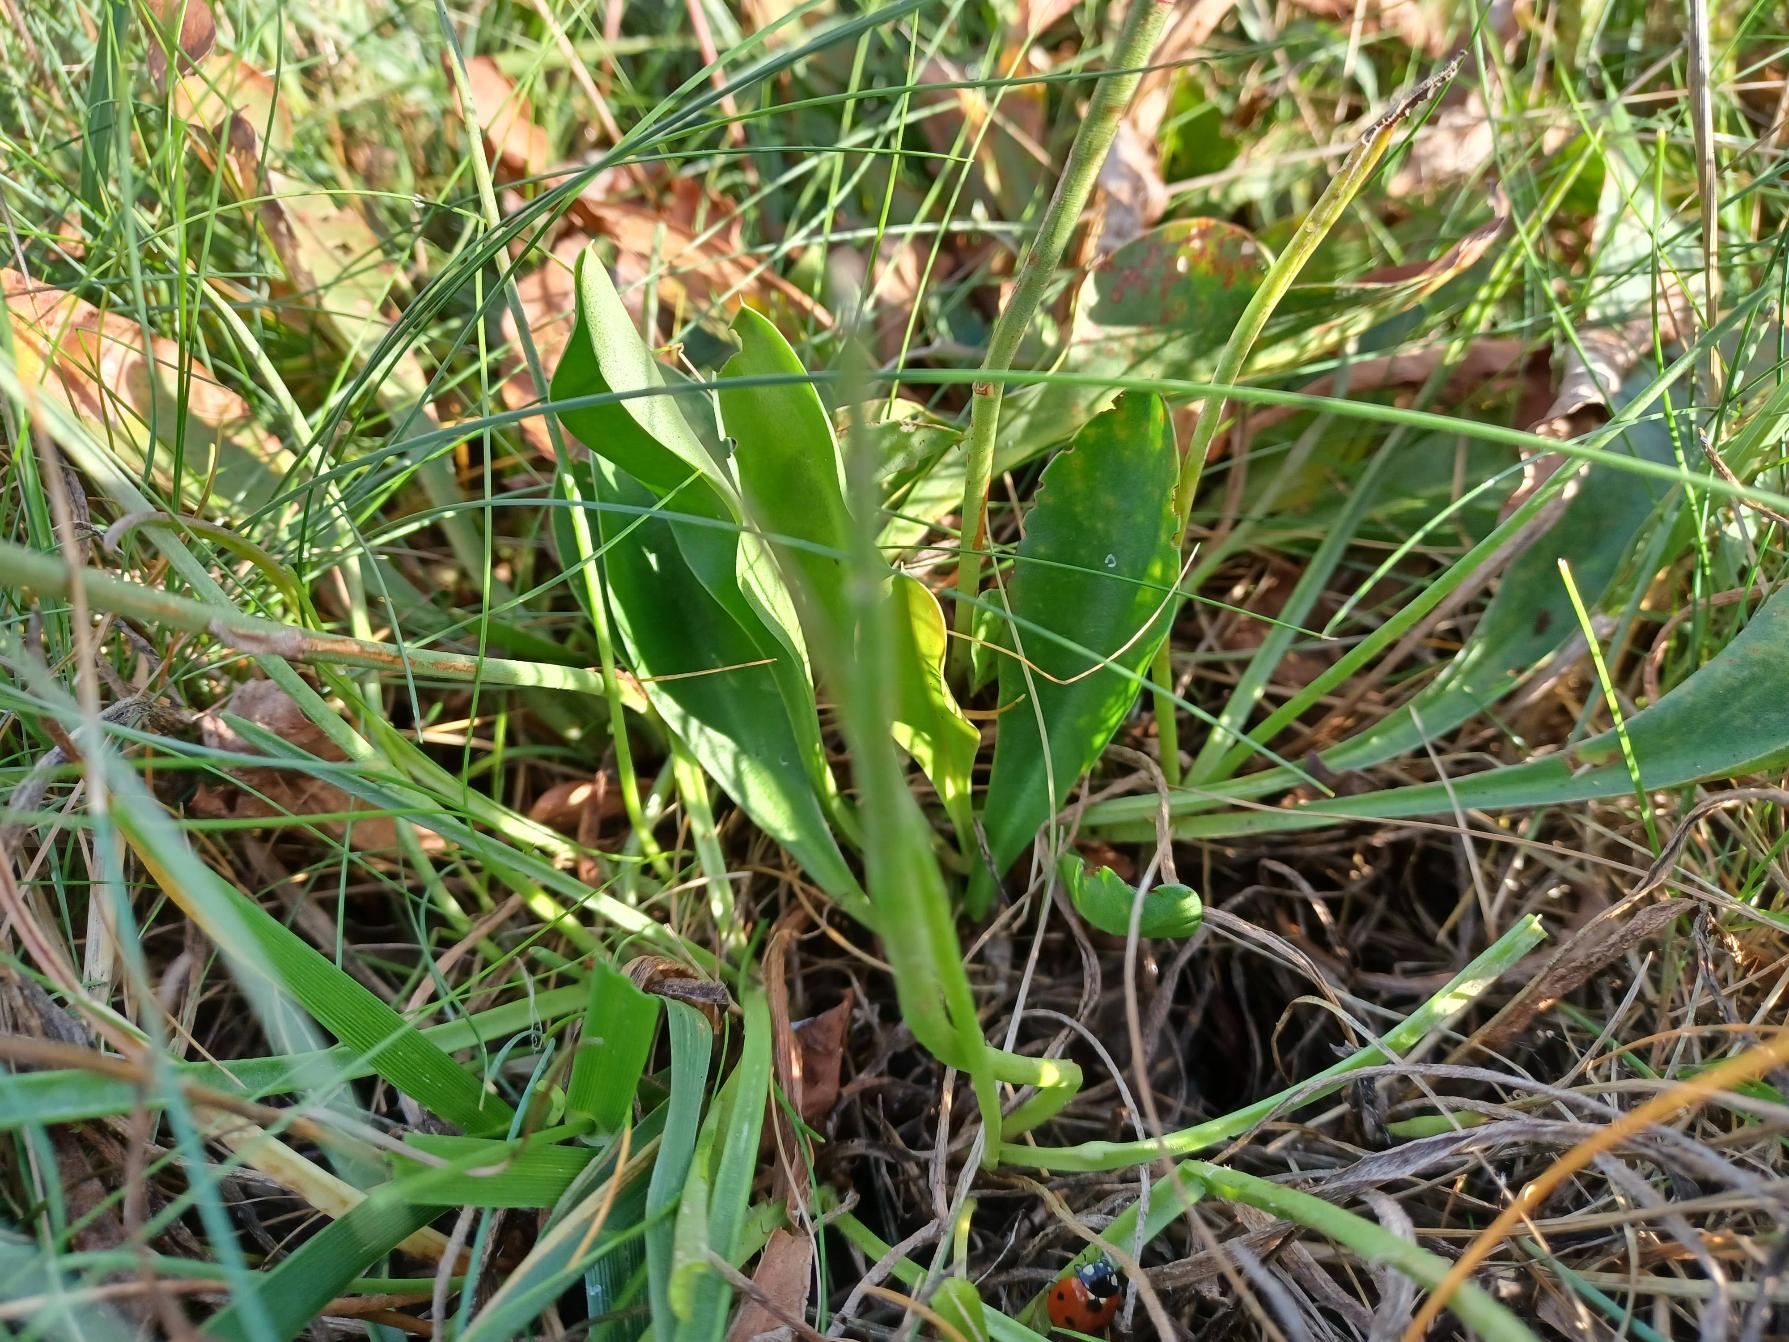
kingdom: Plantae
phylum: Tracheophyta
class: Magnoliopsida
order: Caryophyllales
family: Plumbaginaceae
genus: Limonium
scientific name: Limonium vulgare
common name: Tætblomstret hindebæger
